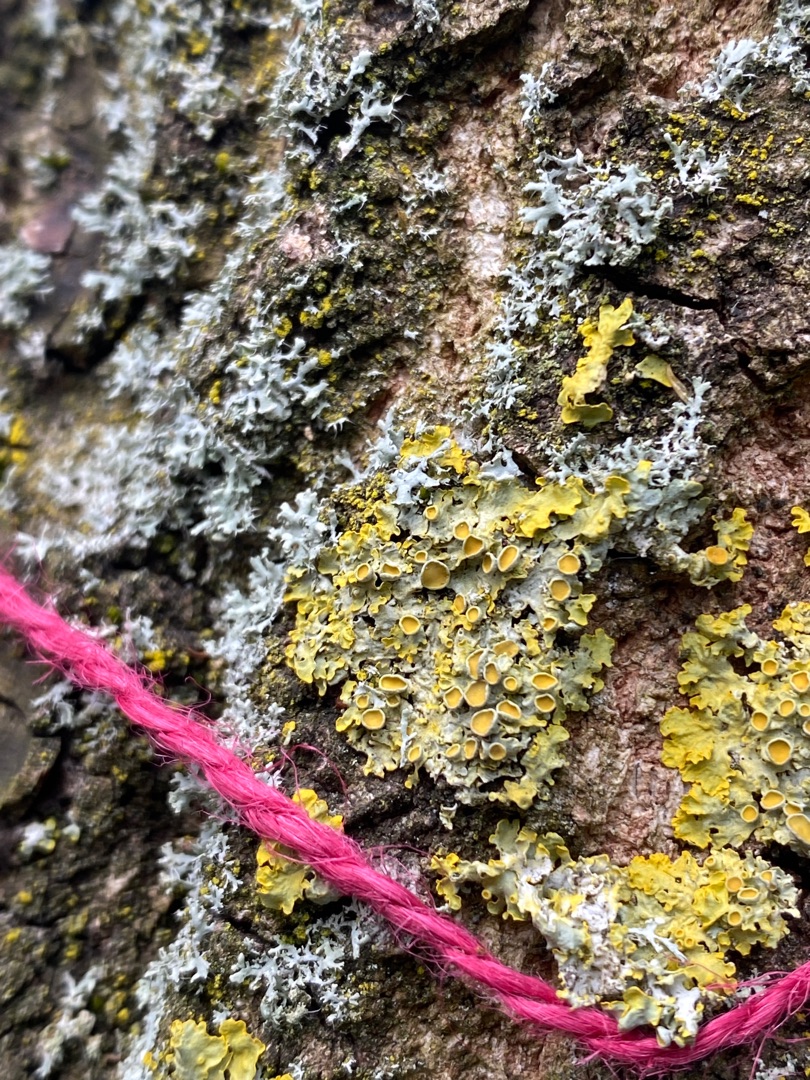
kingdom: Fungi
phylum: Ascomycota
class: Lecanoromycetes
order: Teloschistales
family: Teloschistaceae
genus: Xanthoria
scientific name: Xanthoria parietina
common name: Almindelig væggelav
